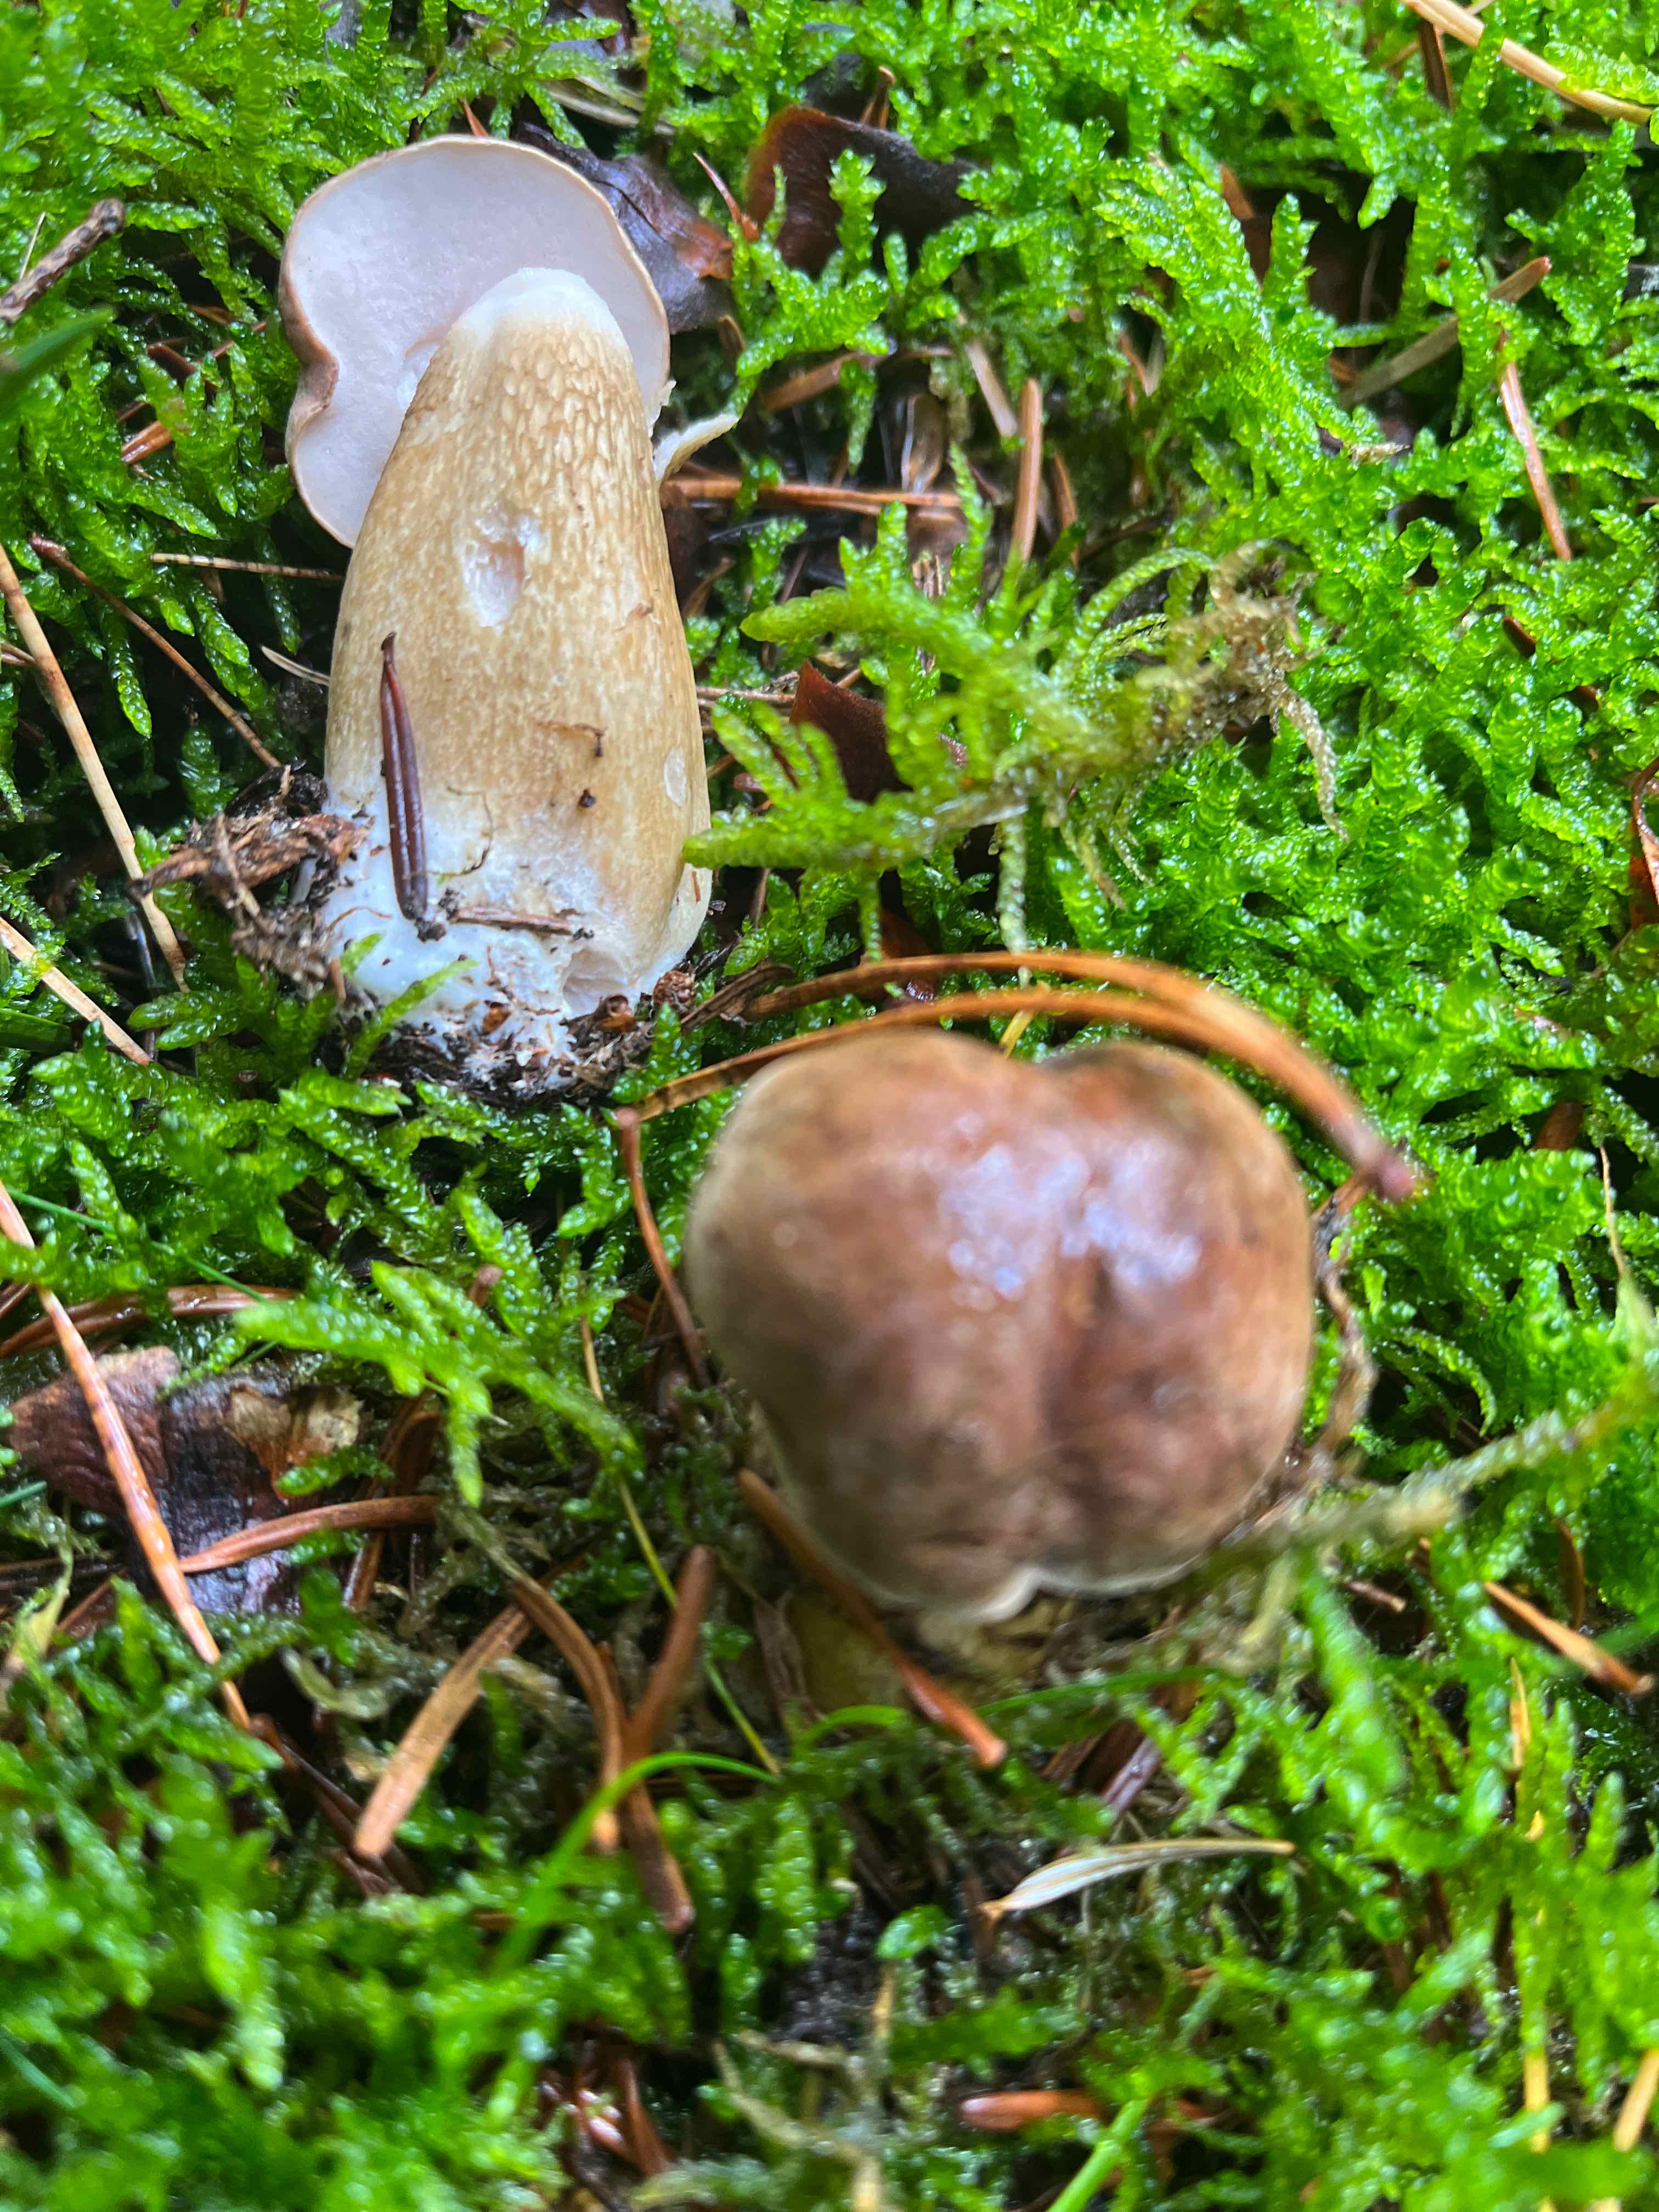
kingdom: Fungi
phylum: Basidiomycota
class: Agaricomycetes
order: Boletales
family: Boletaceae
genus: Tylopilus
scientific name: Tylopilus felleus
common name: galderørhat
